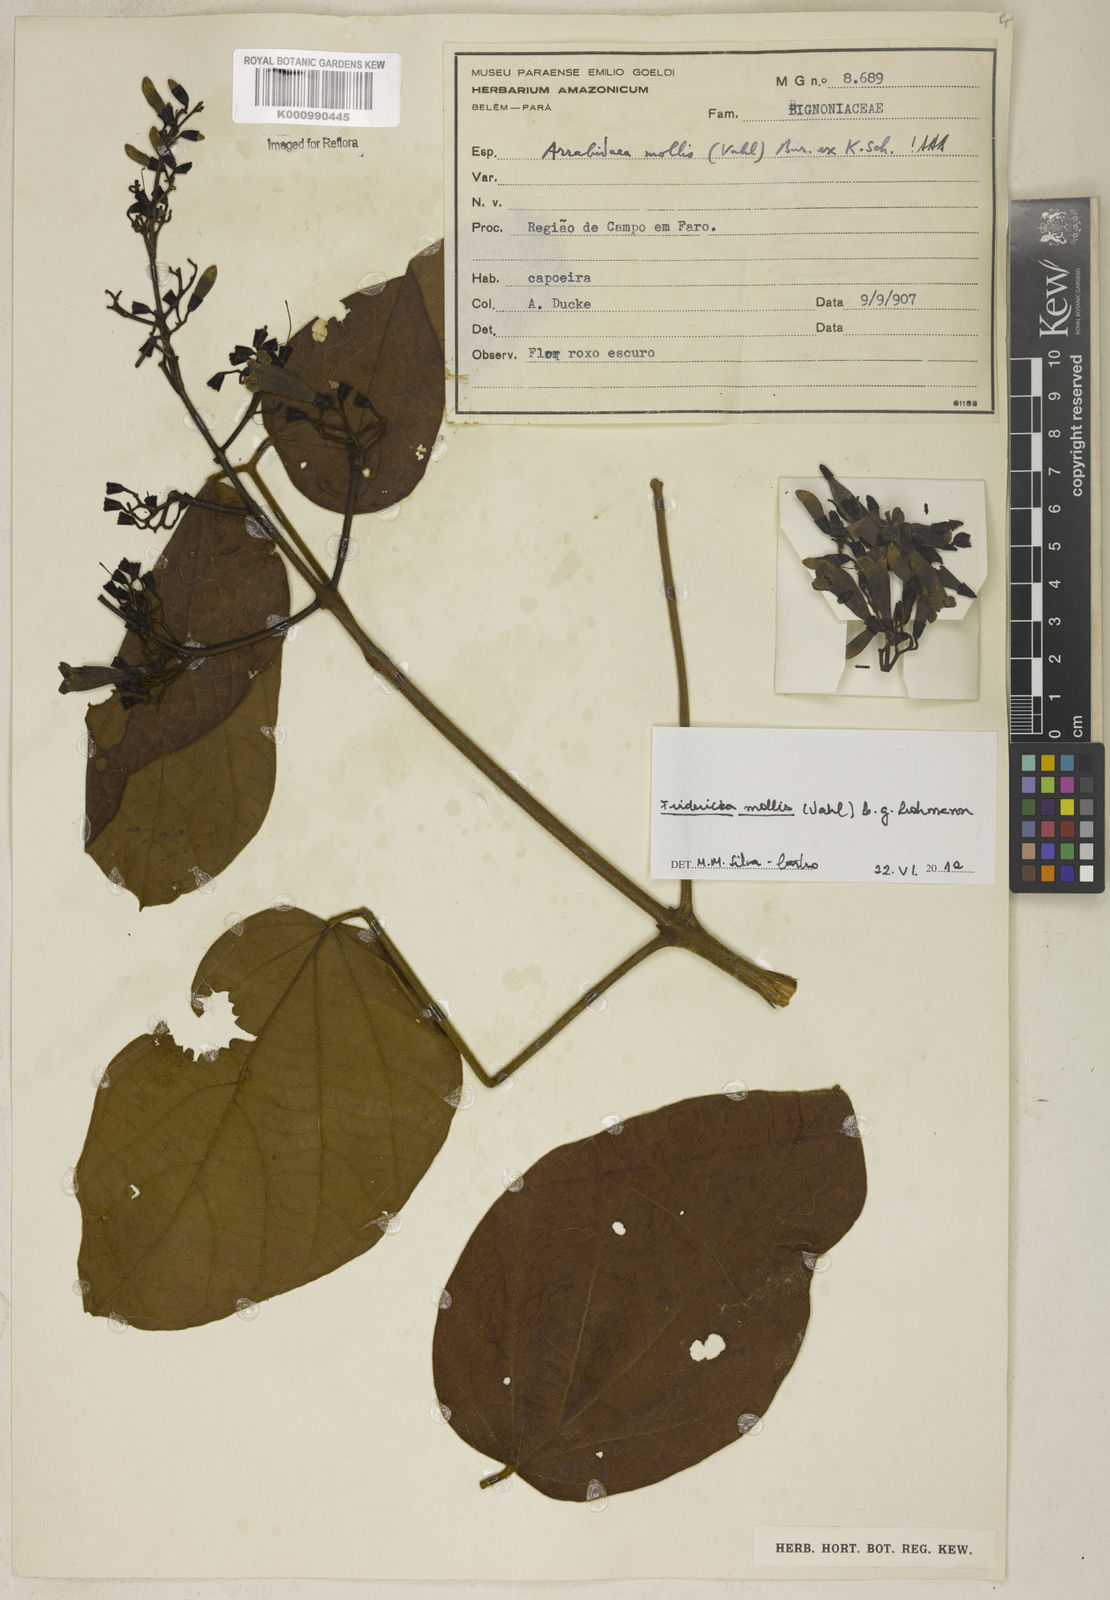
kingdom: Plantae
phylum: Tracheophyta
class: Magnoliopsida
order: Lamiales
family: Bignoniaceae
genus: Fridericia
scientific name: Fridericia mollis
